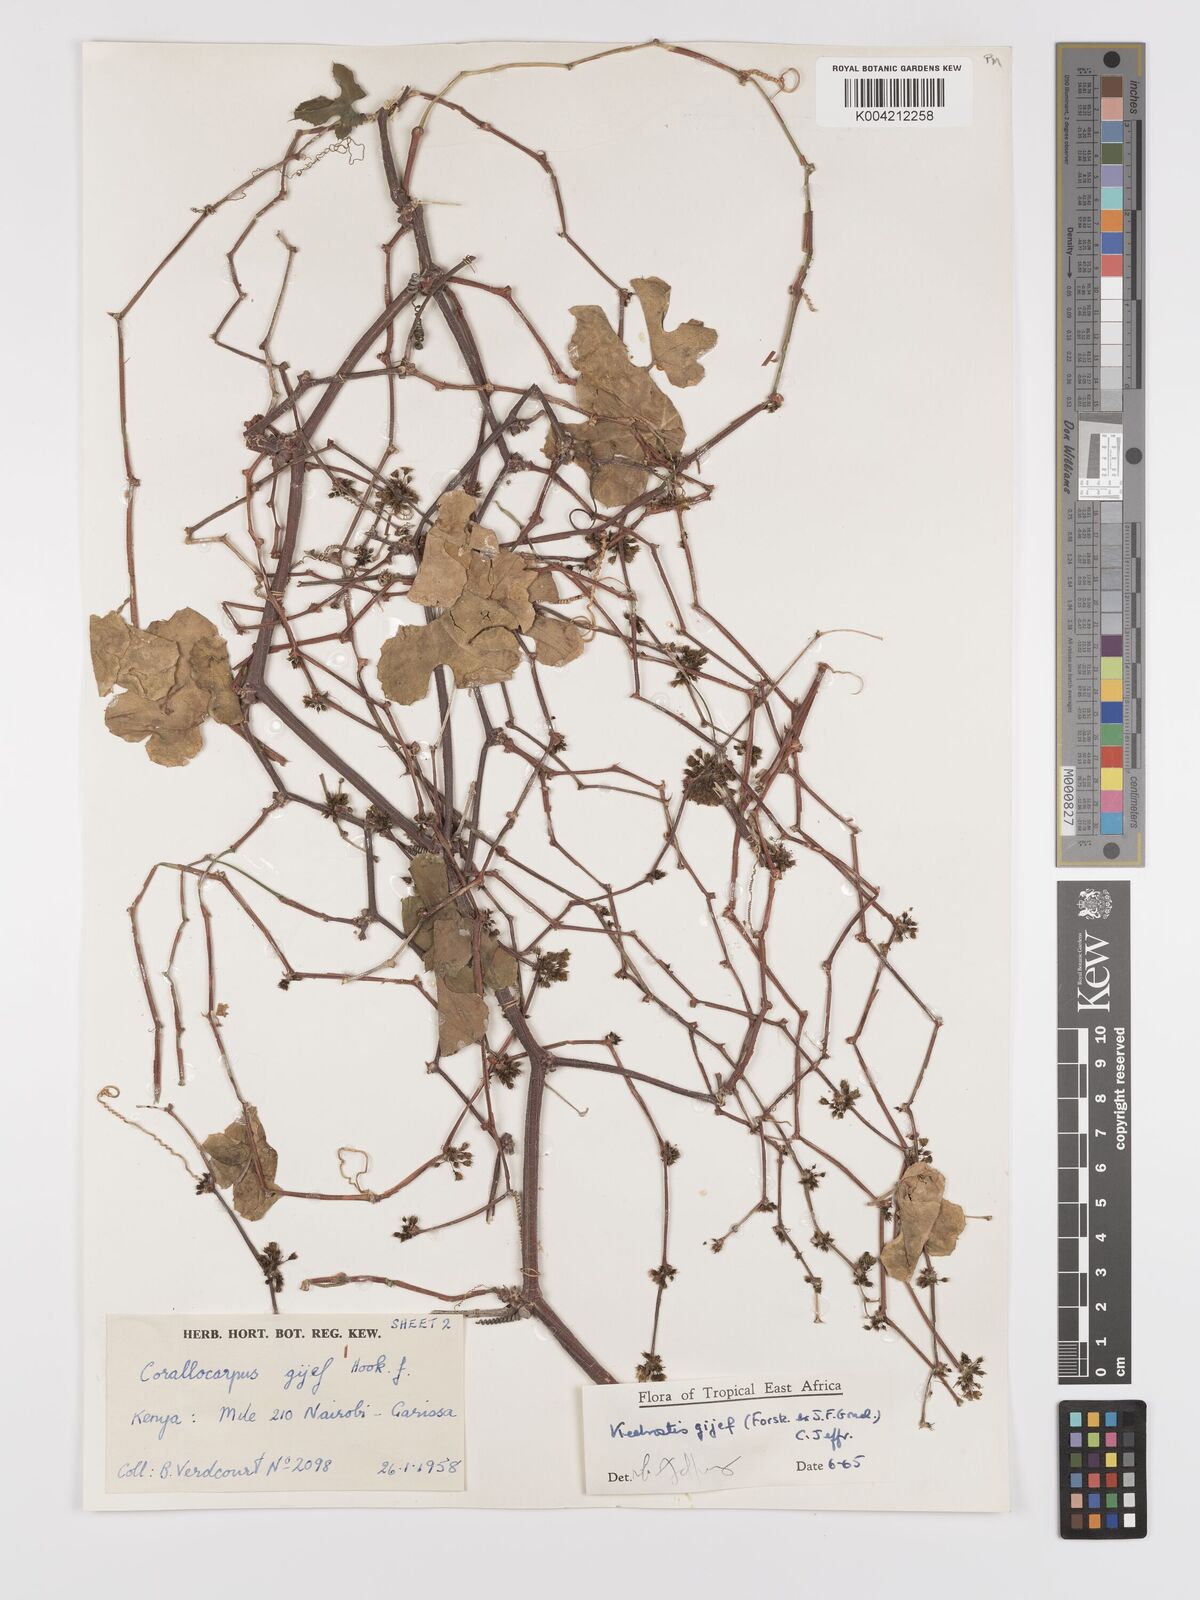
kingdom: Plantae
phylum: Tracheophyta
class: Magnoliopsida
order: Cucurbitales
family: Cucurbitaceae
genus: Kedrostis
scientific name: Kedrostis gijef
